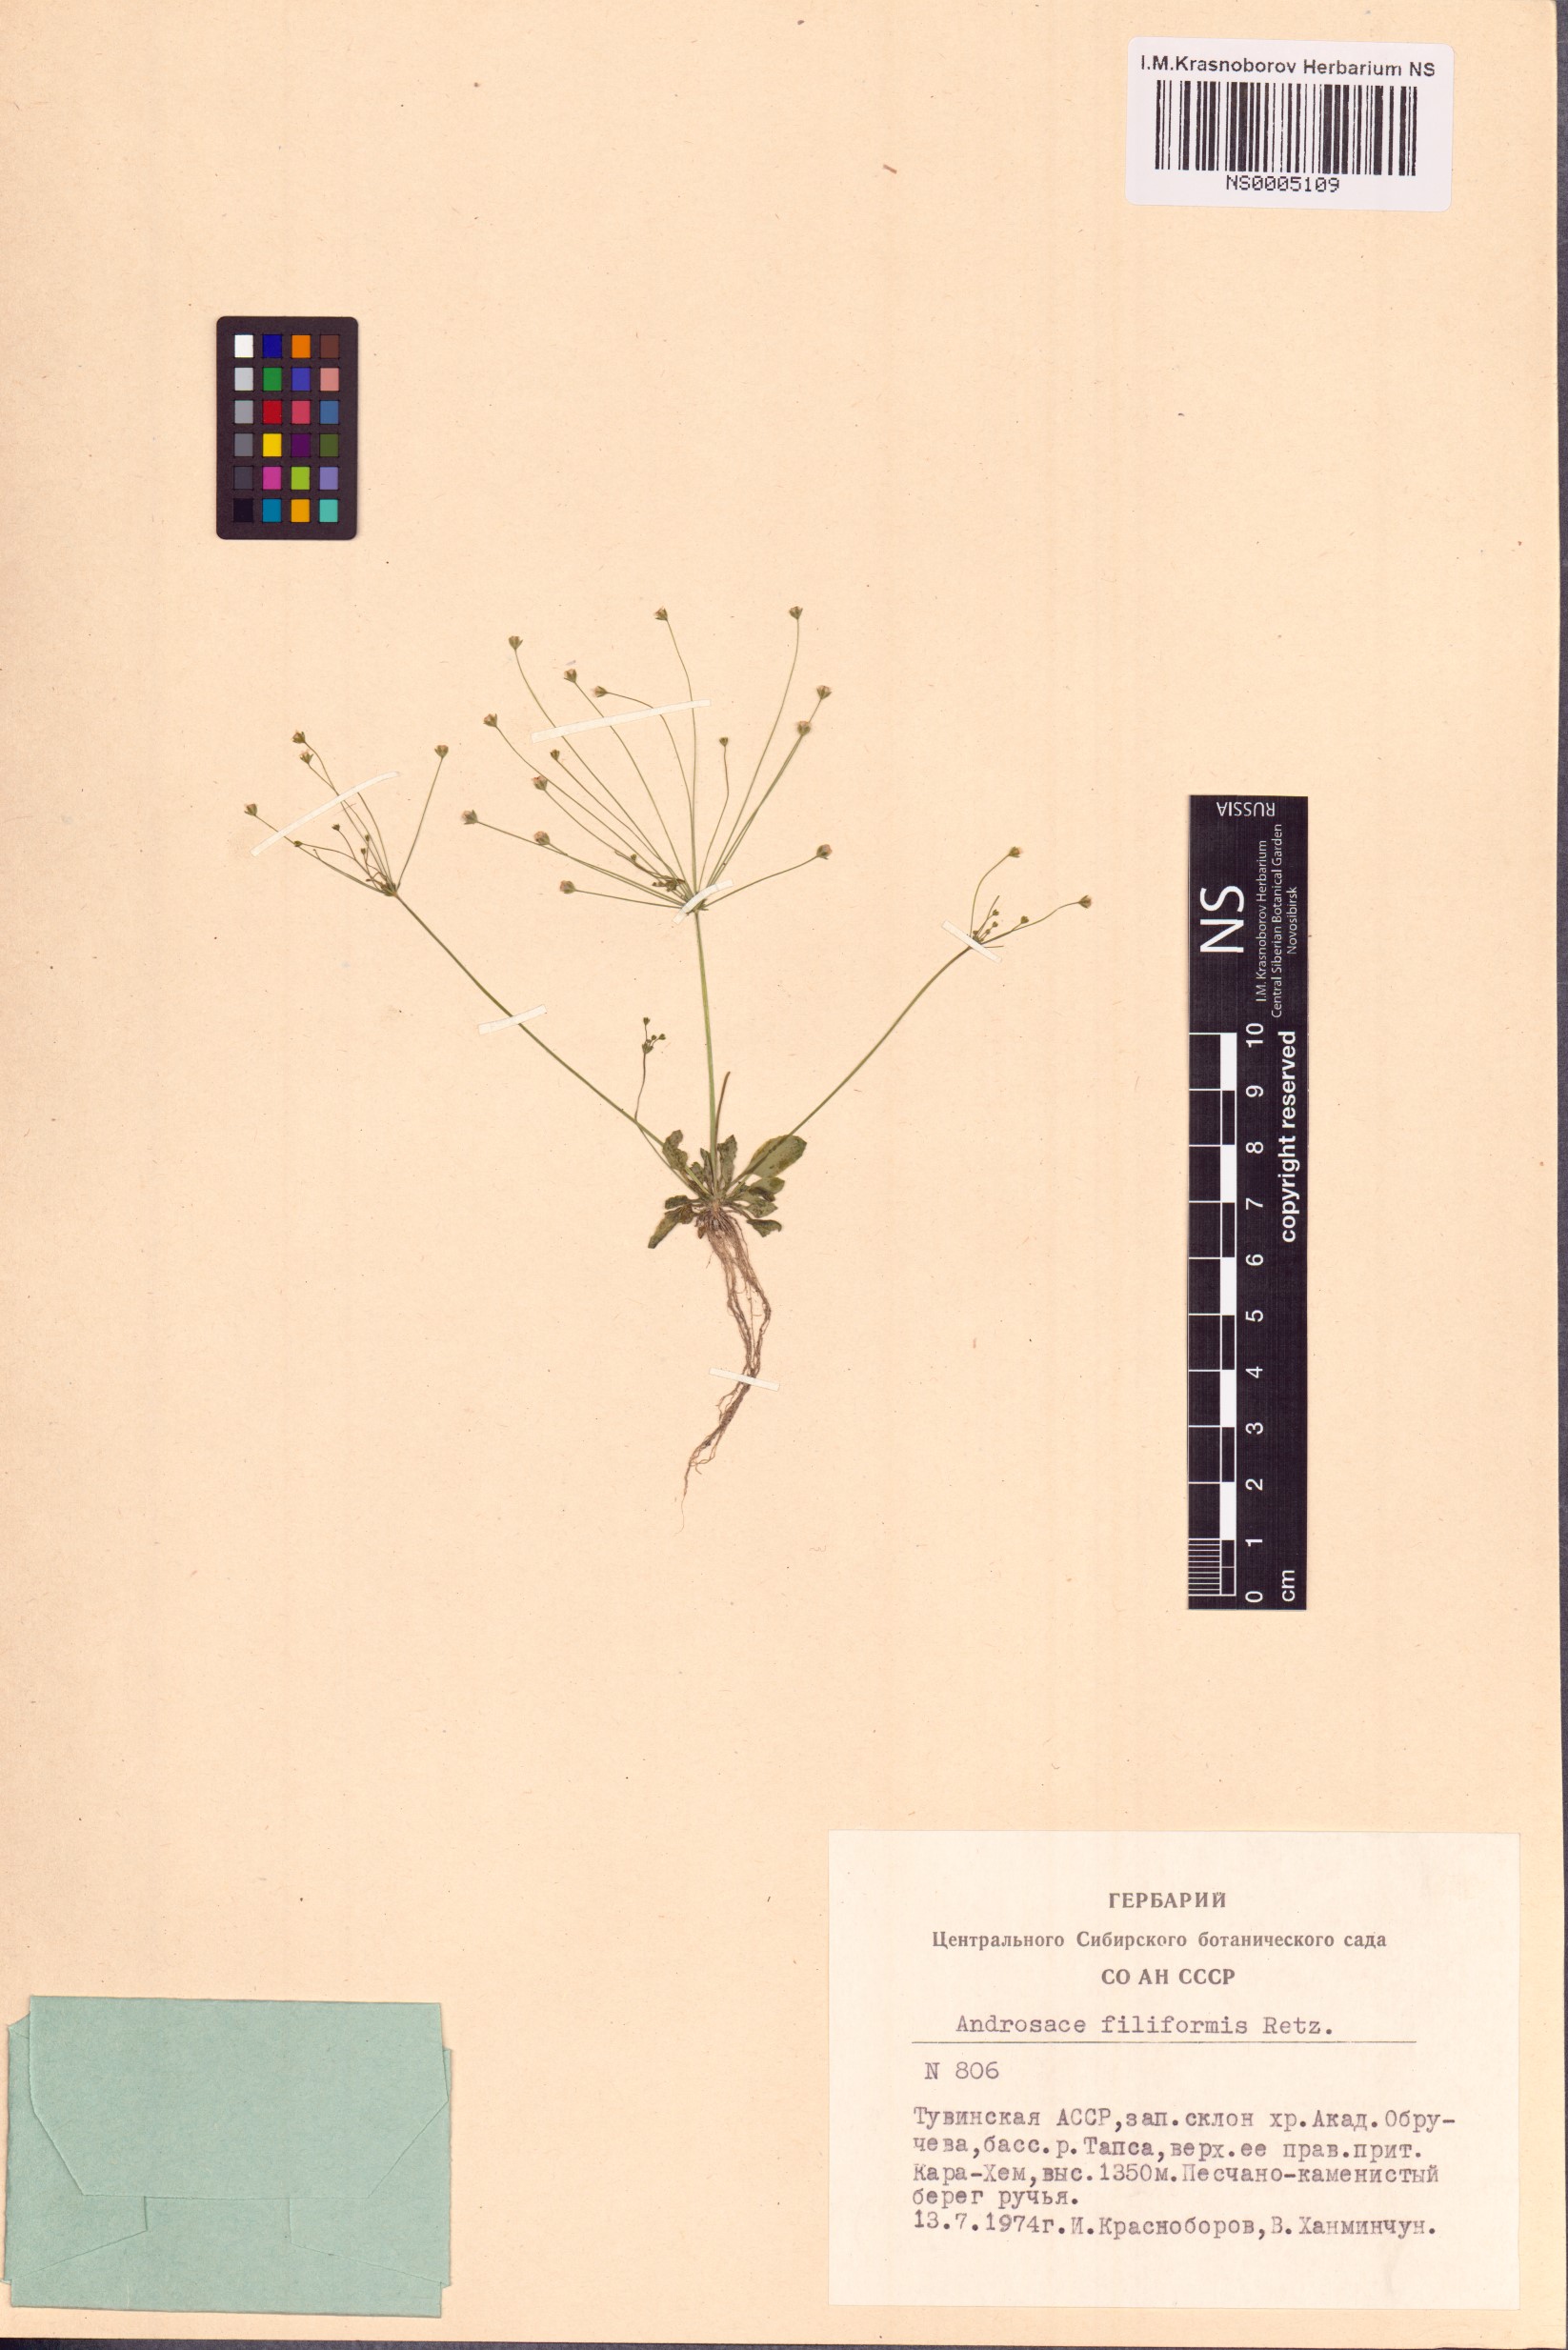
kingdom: Plantae
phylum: Tracheophyta
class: Magnoliopsida
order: Ericales
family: Primulaceae
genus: Androsace
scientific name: Androsace filiformis
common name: Filiform rock jasmine
